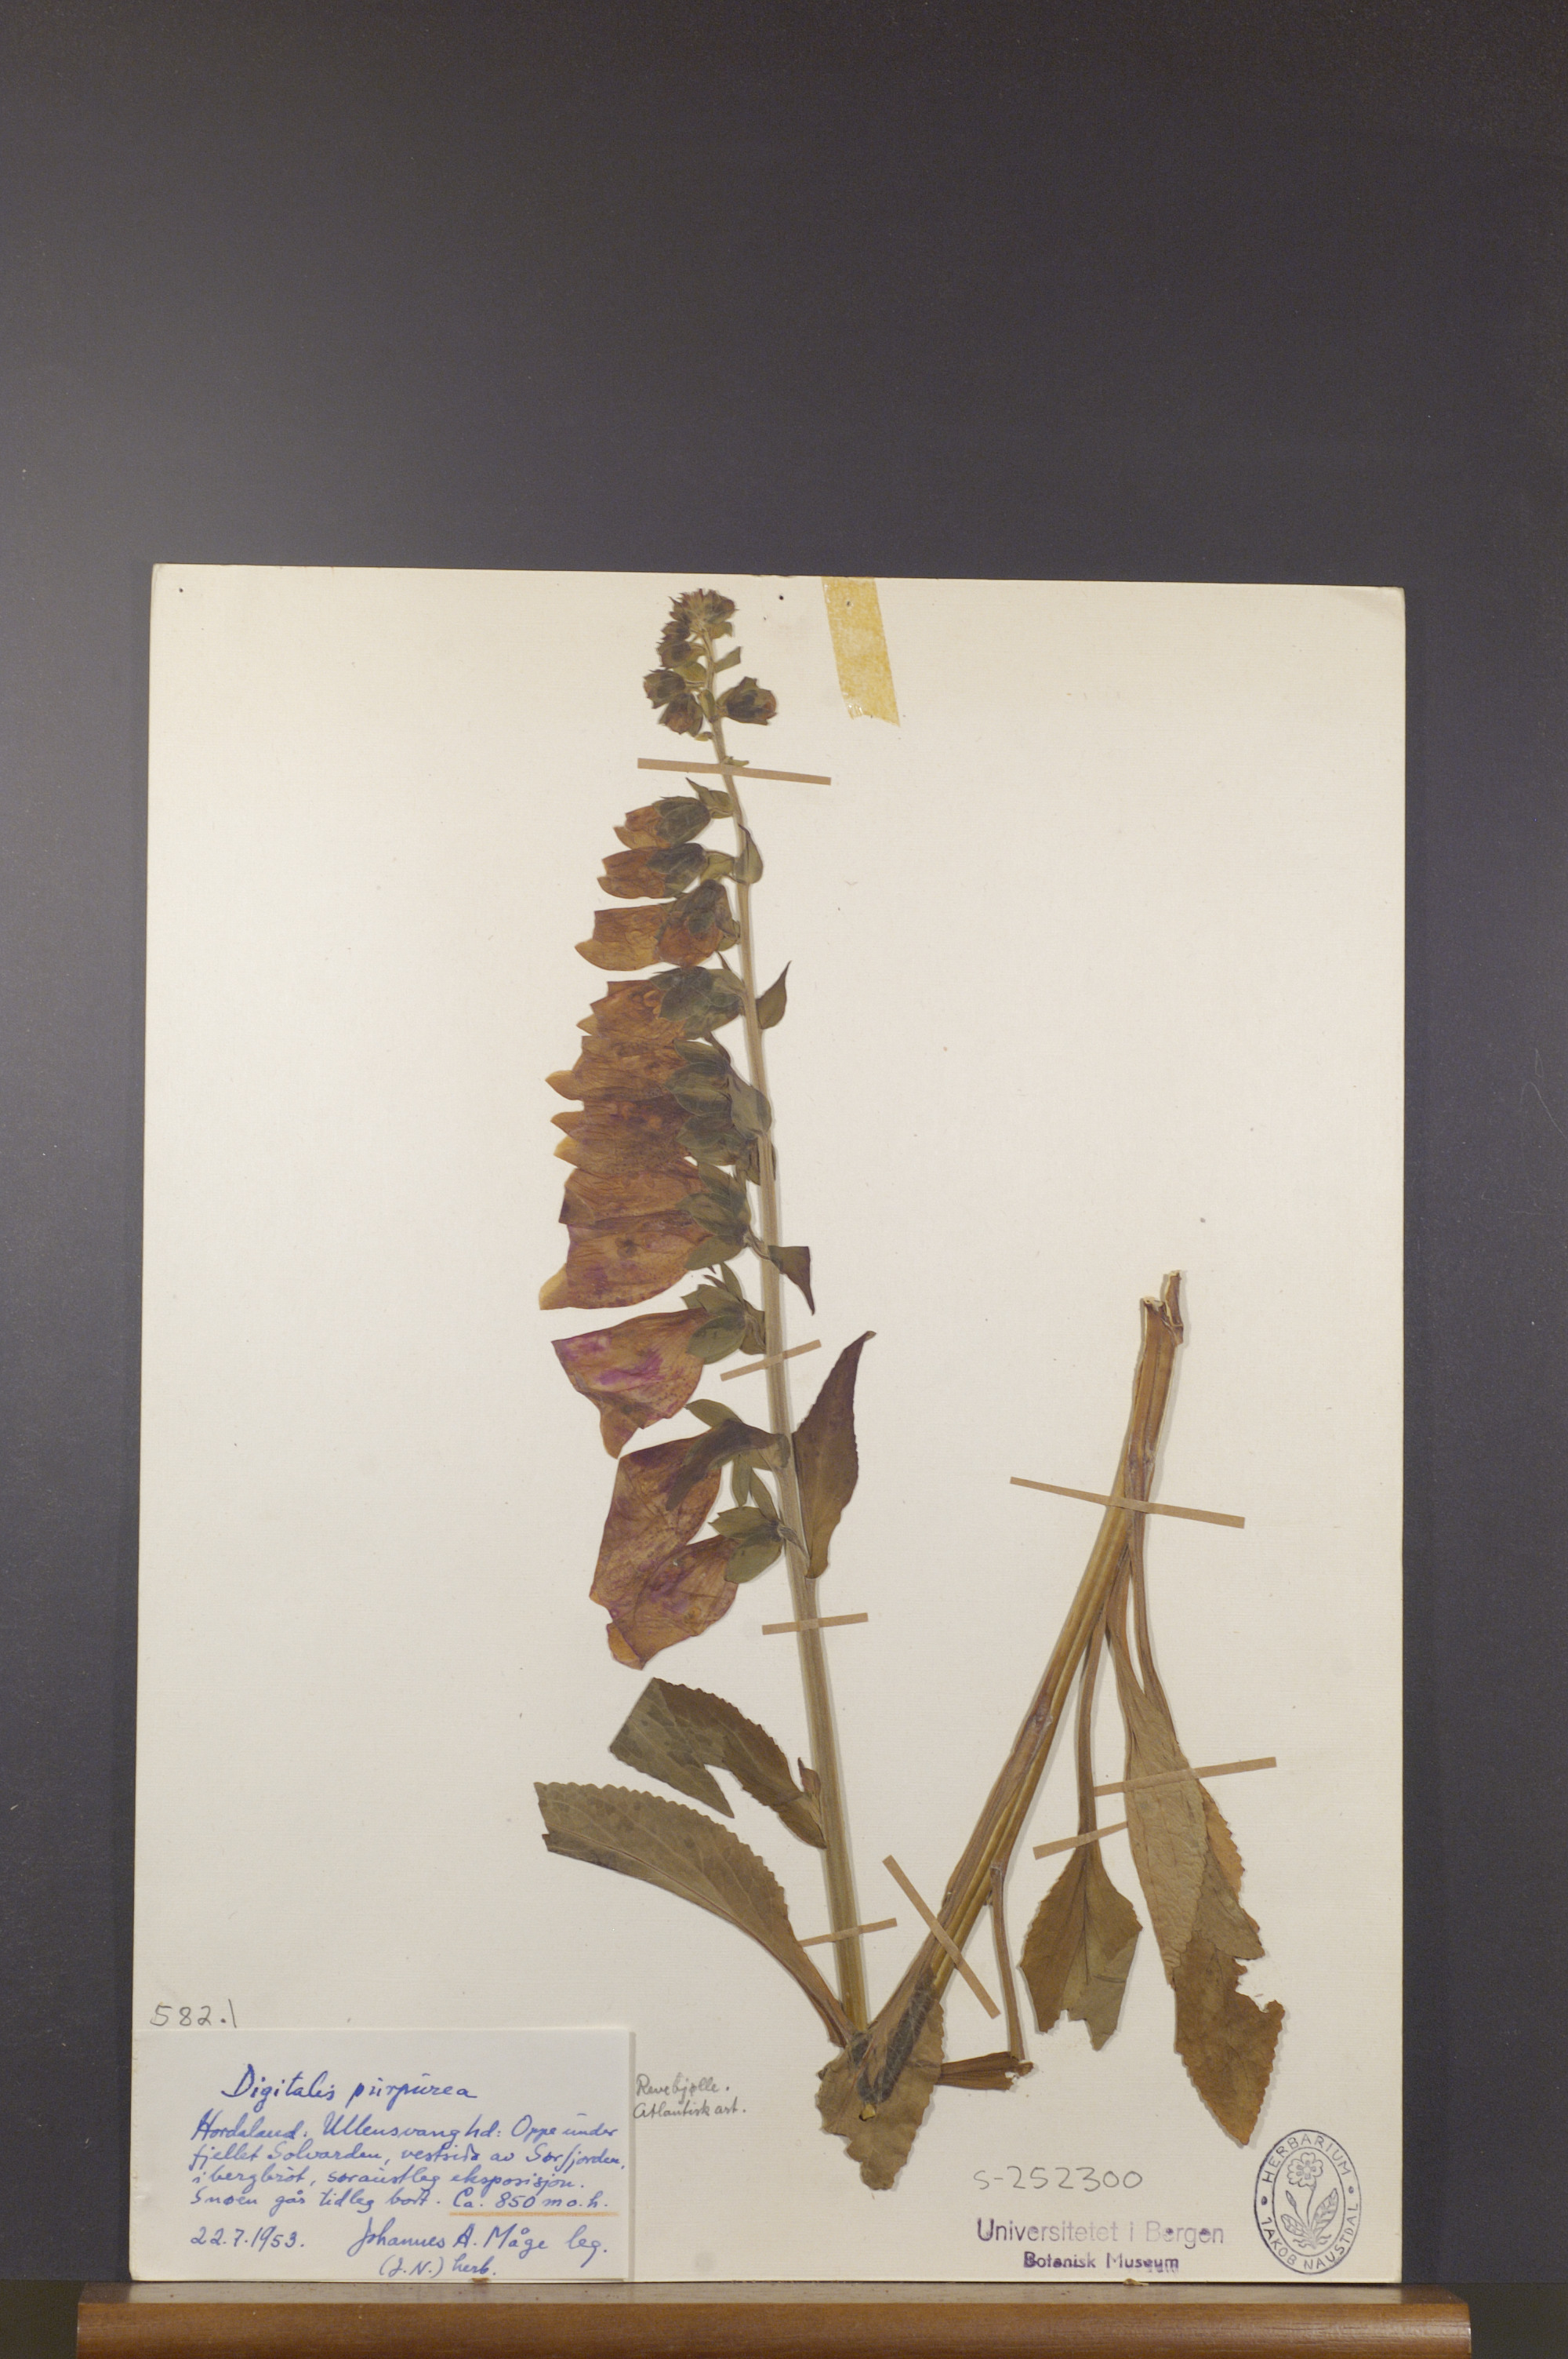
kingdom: Plantae
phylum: Tracheophyta
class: Magnoliopsida
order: Lamiales
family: Plantaginaceae
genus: Digitalis
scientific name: Digitalis purpurea
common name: Foxglove
